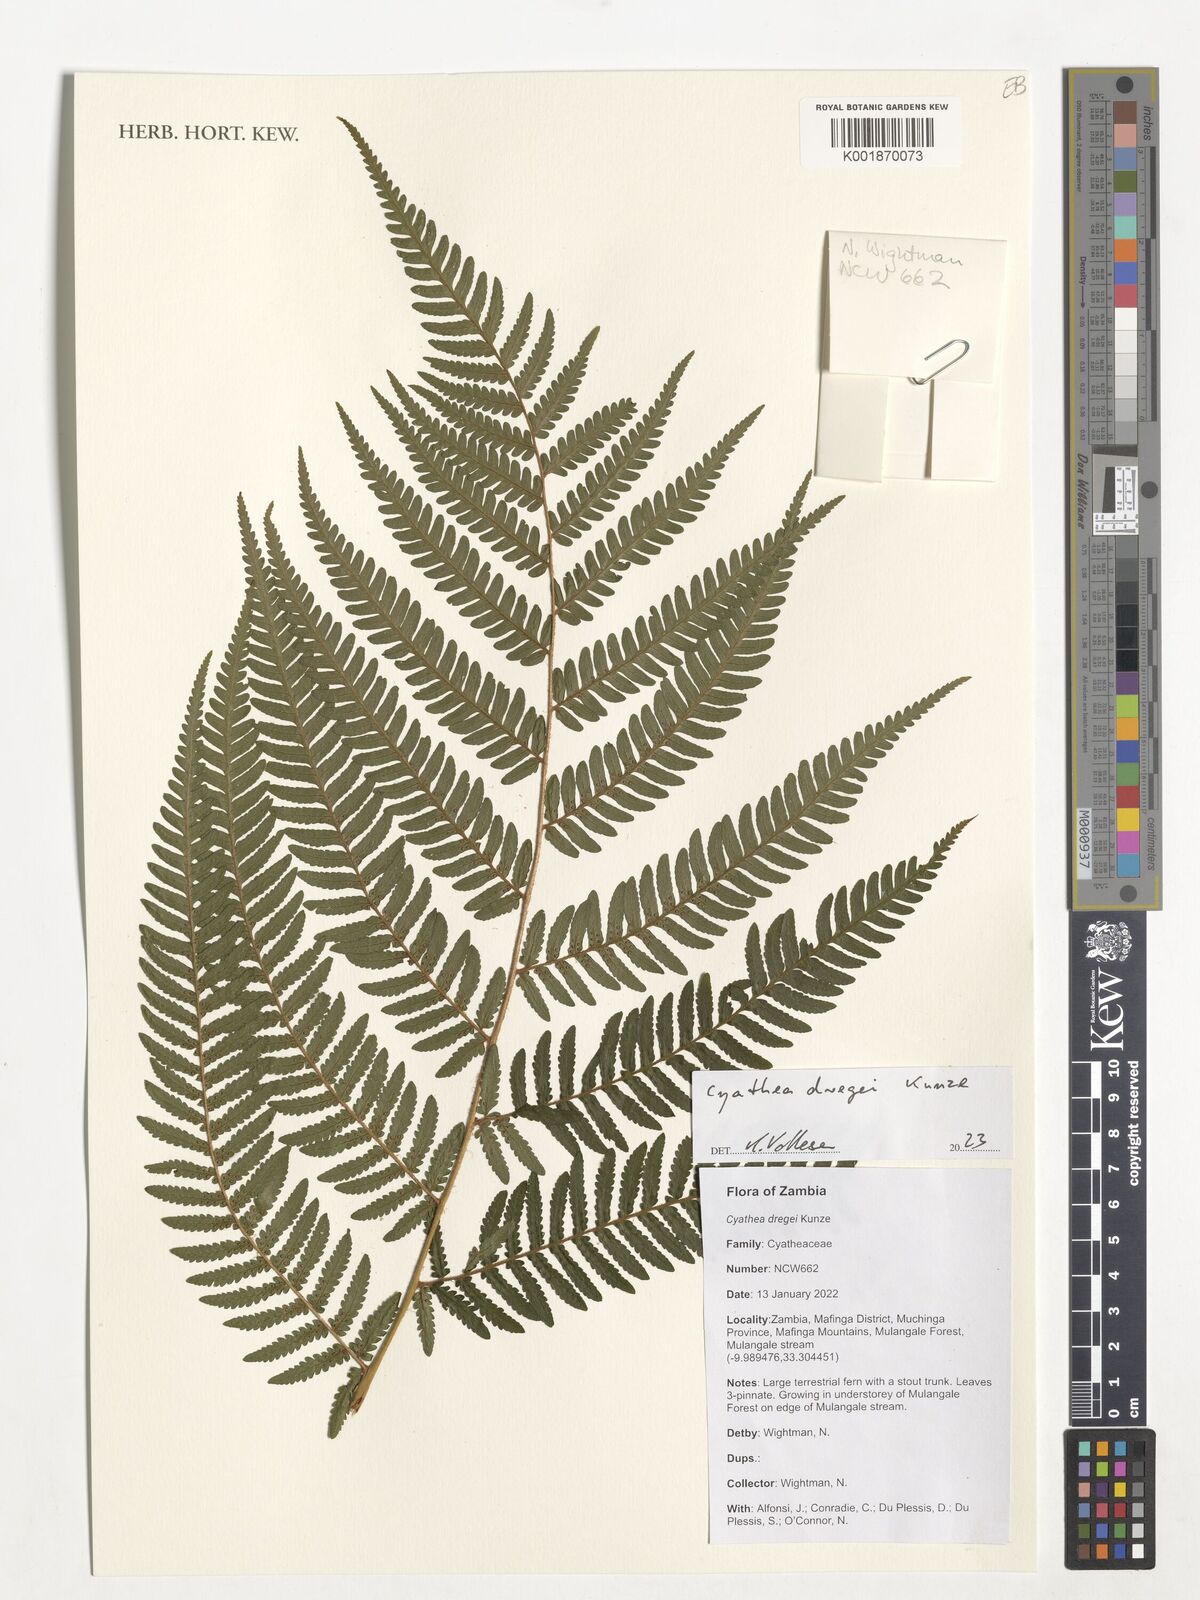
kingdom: Plantae
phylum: Tracheophyta
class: Polypodiopsida
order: Cyatheales
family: Cyatheaceae
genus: Alsophila
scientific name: Alsophila dregei
